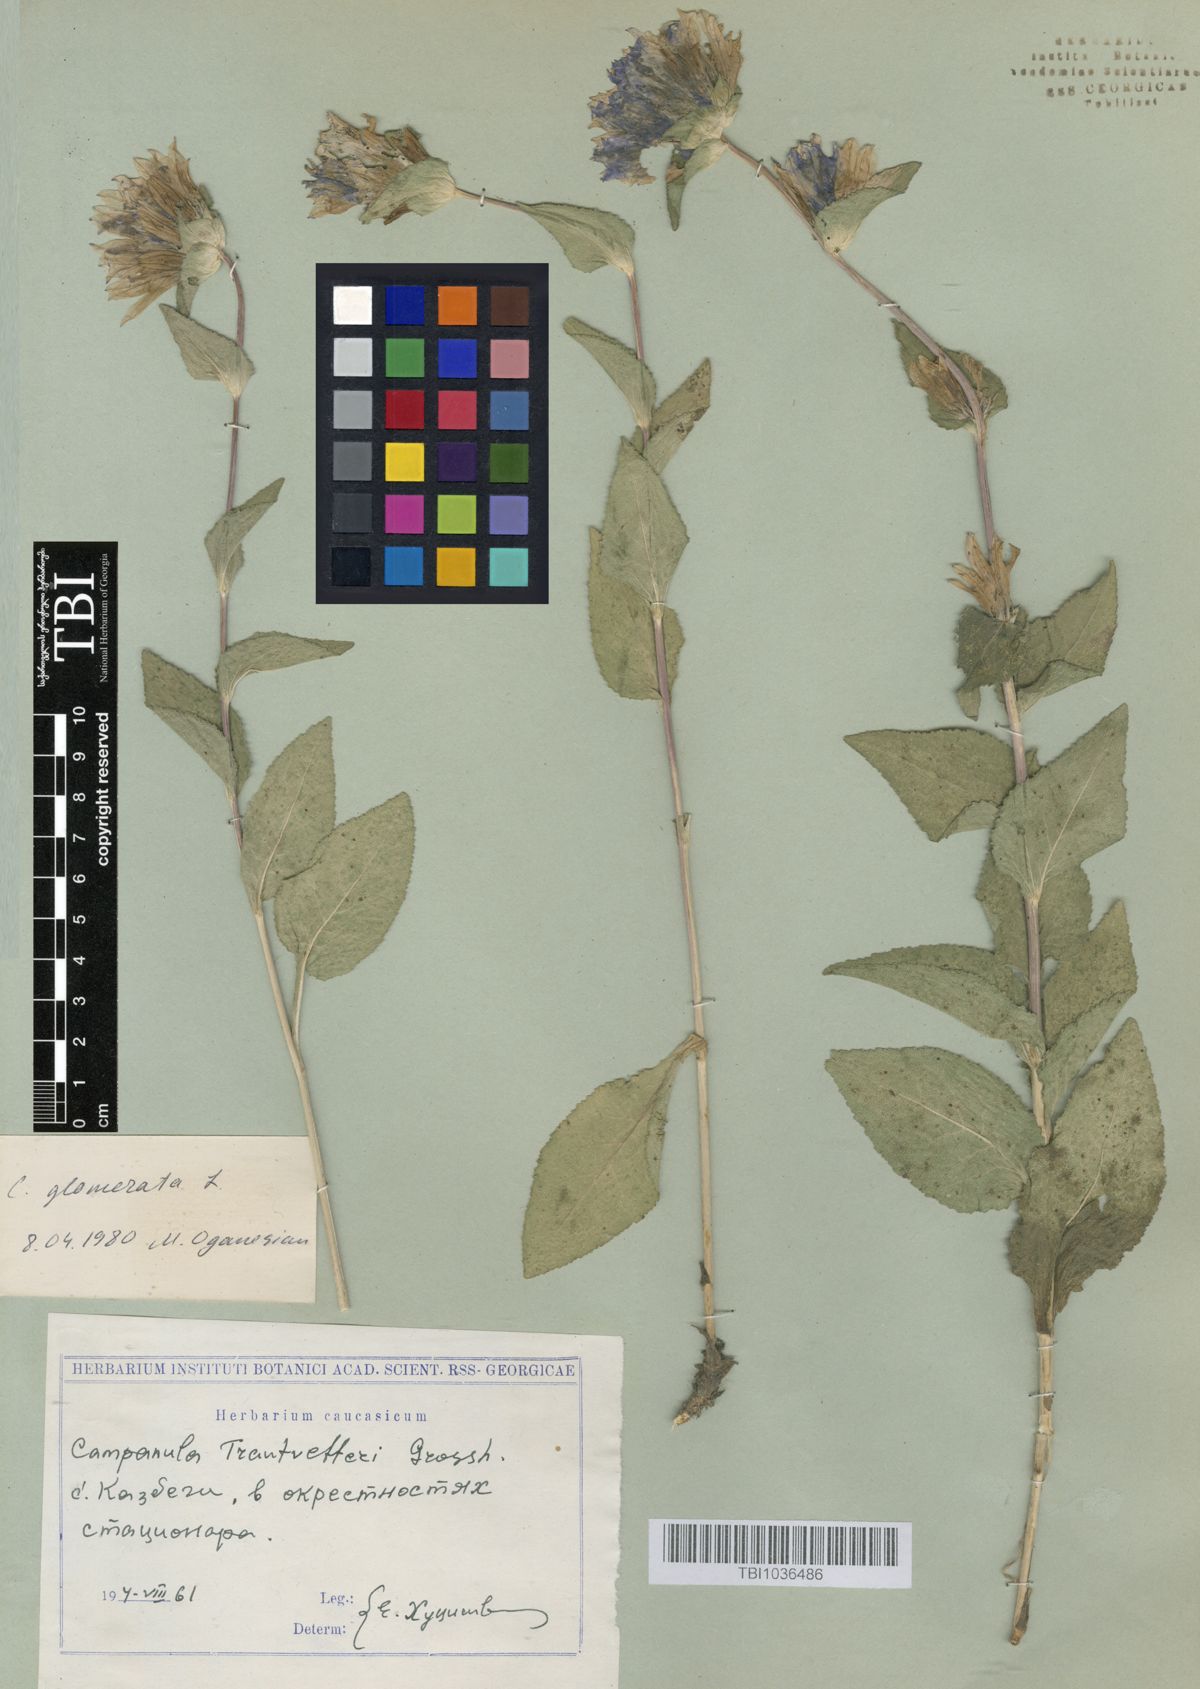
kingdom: Plantae
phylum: Tracheophyta
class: Magnoliopsida
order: Asterales
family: Campanulaceae
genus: Campanula
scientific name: Campanula glomerata
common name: Clustered bellflower
